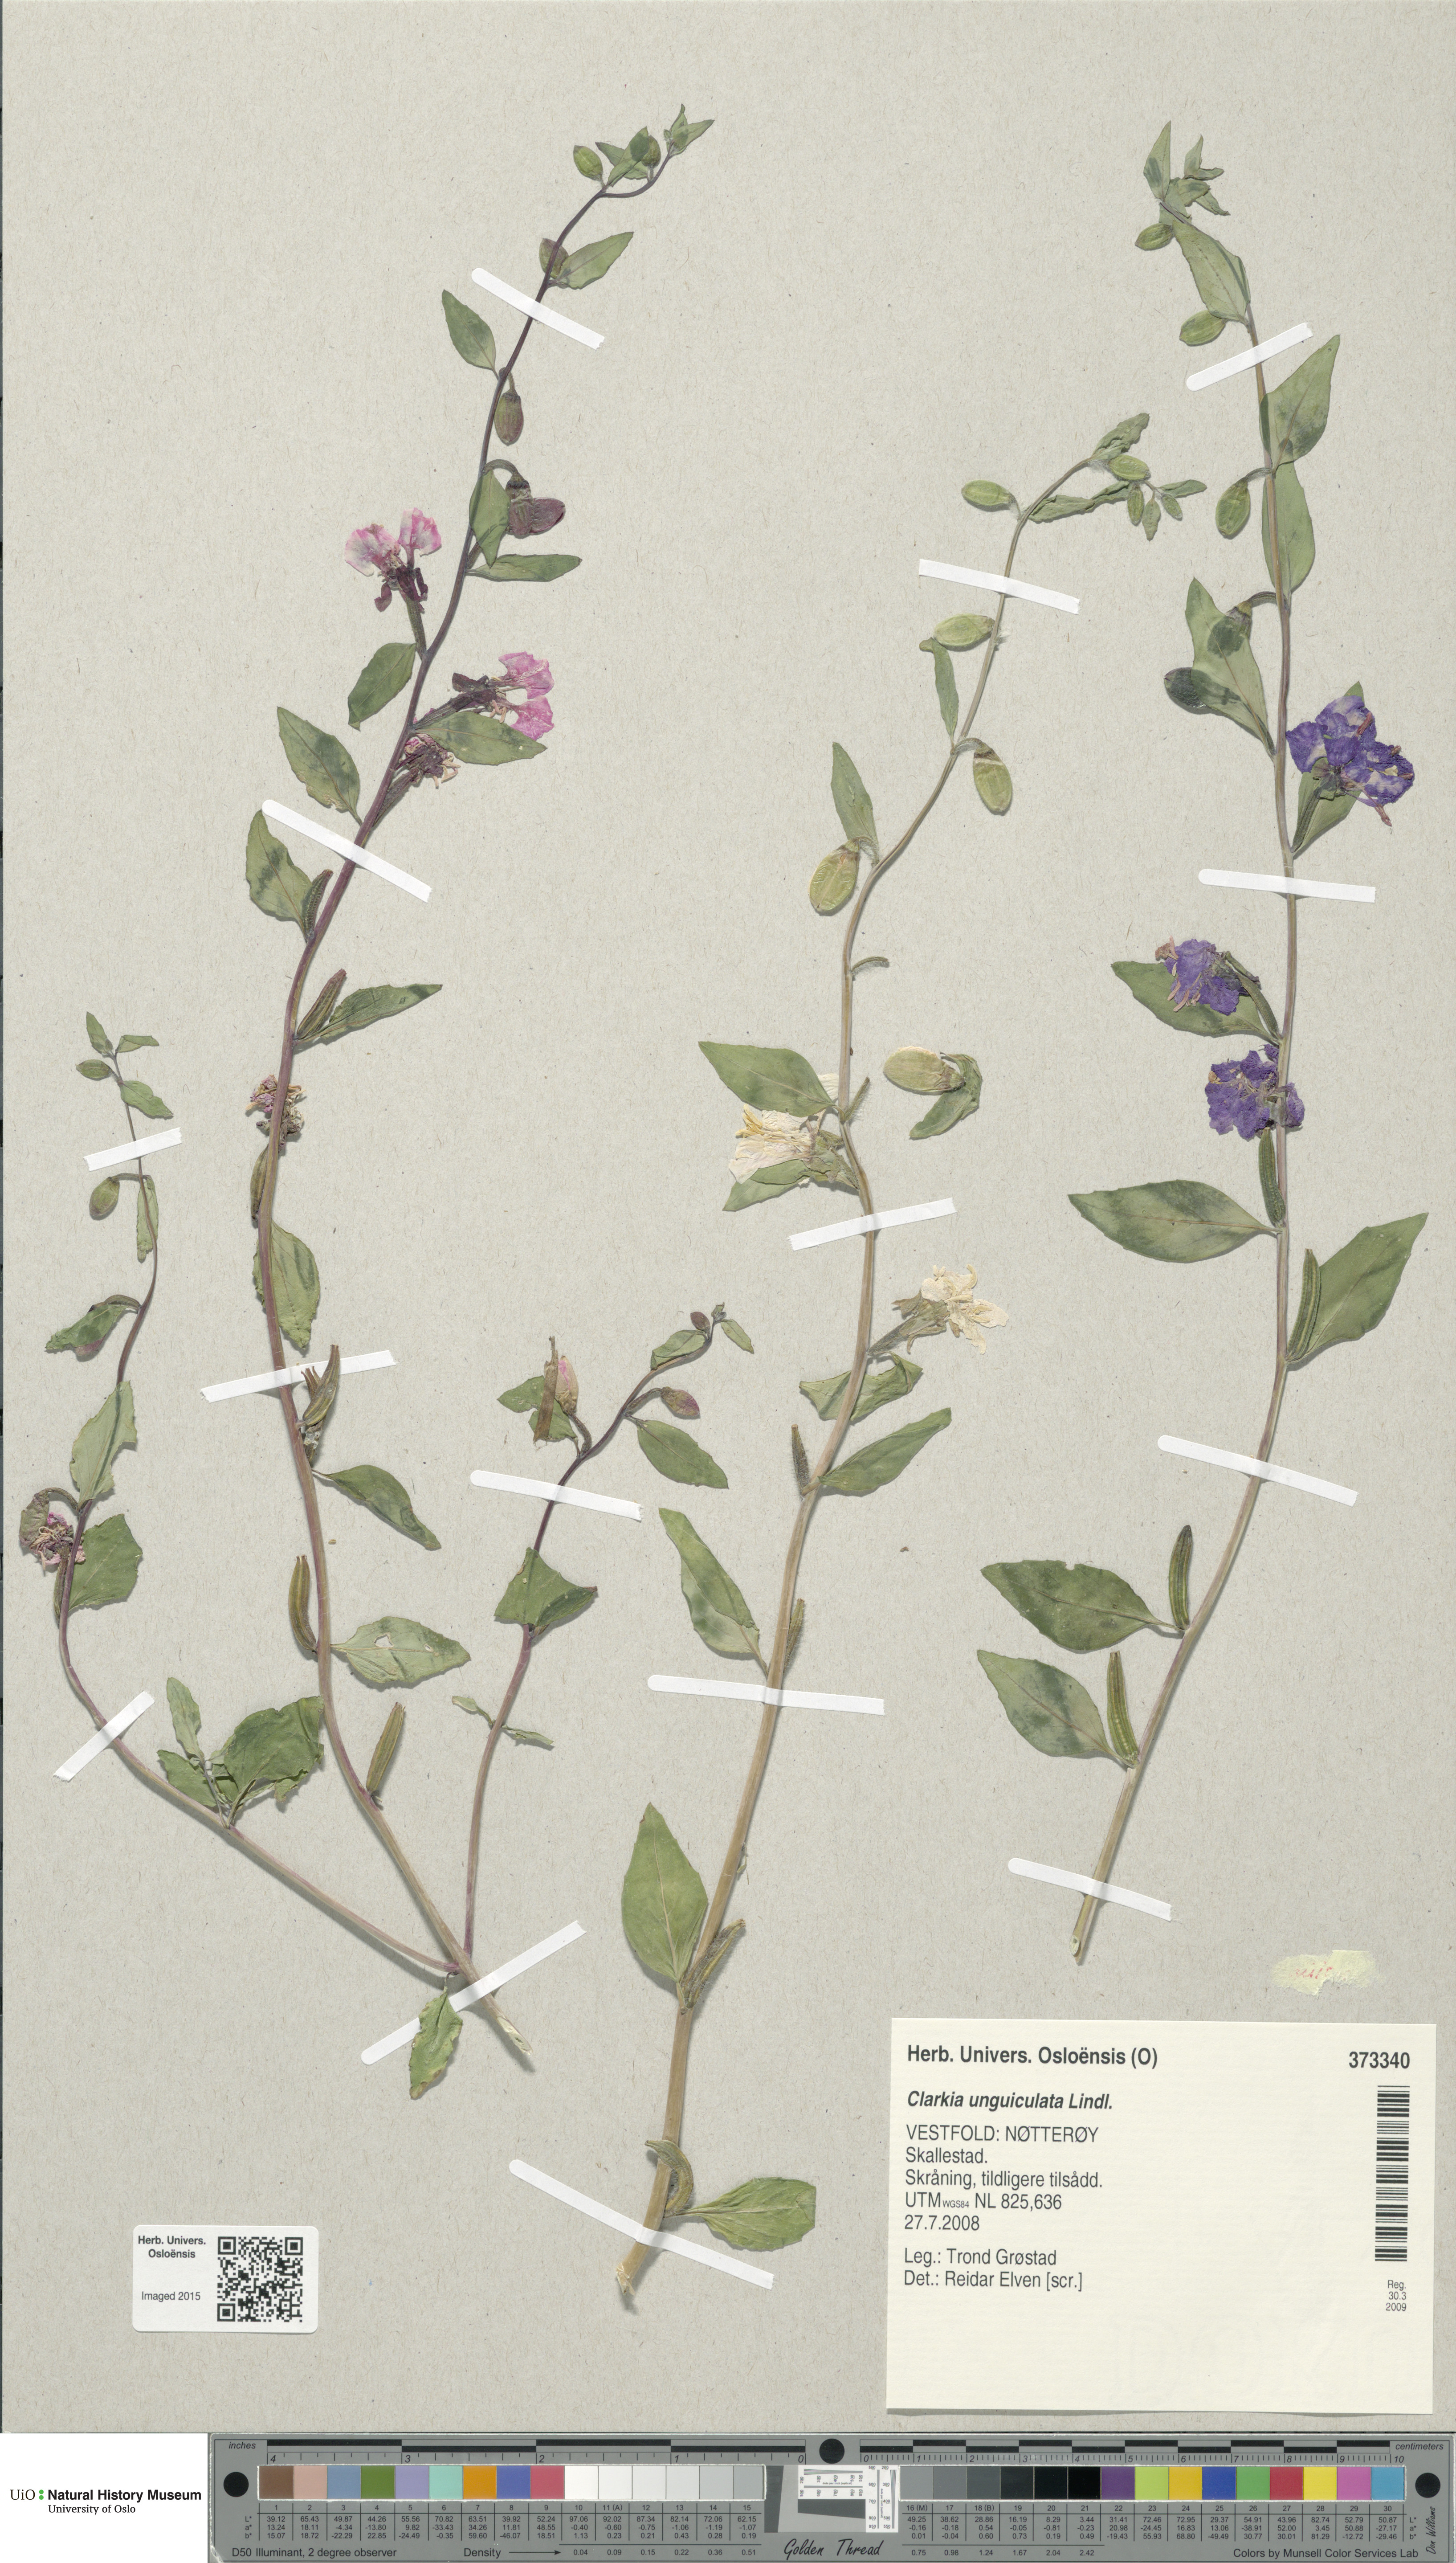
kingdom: Plantae
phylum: Tracheophyta
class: Magnoliopsida
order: Myrtales
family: Onagraceae
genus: Clarkia
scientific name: Clarkia unguiculata
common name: Clarkia
